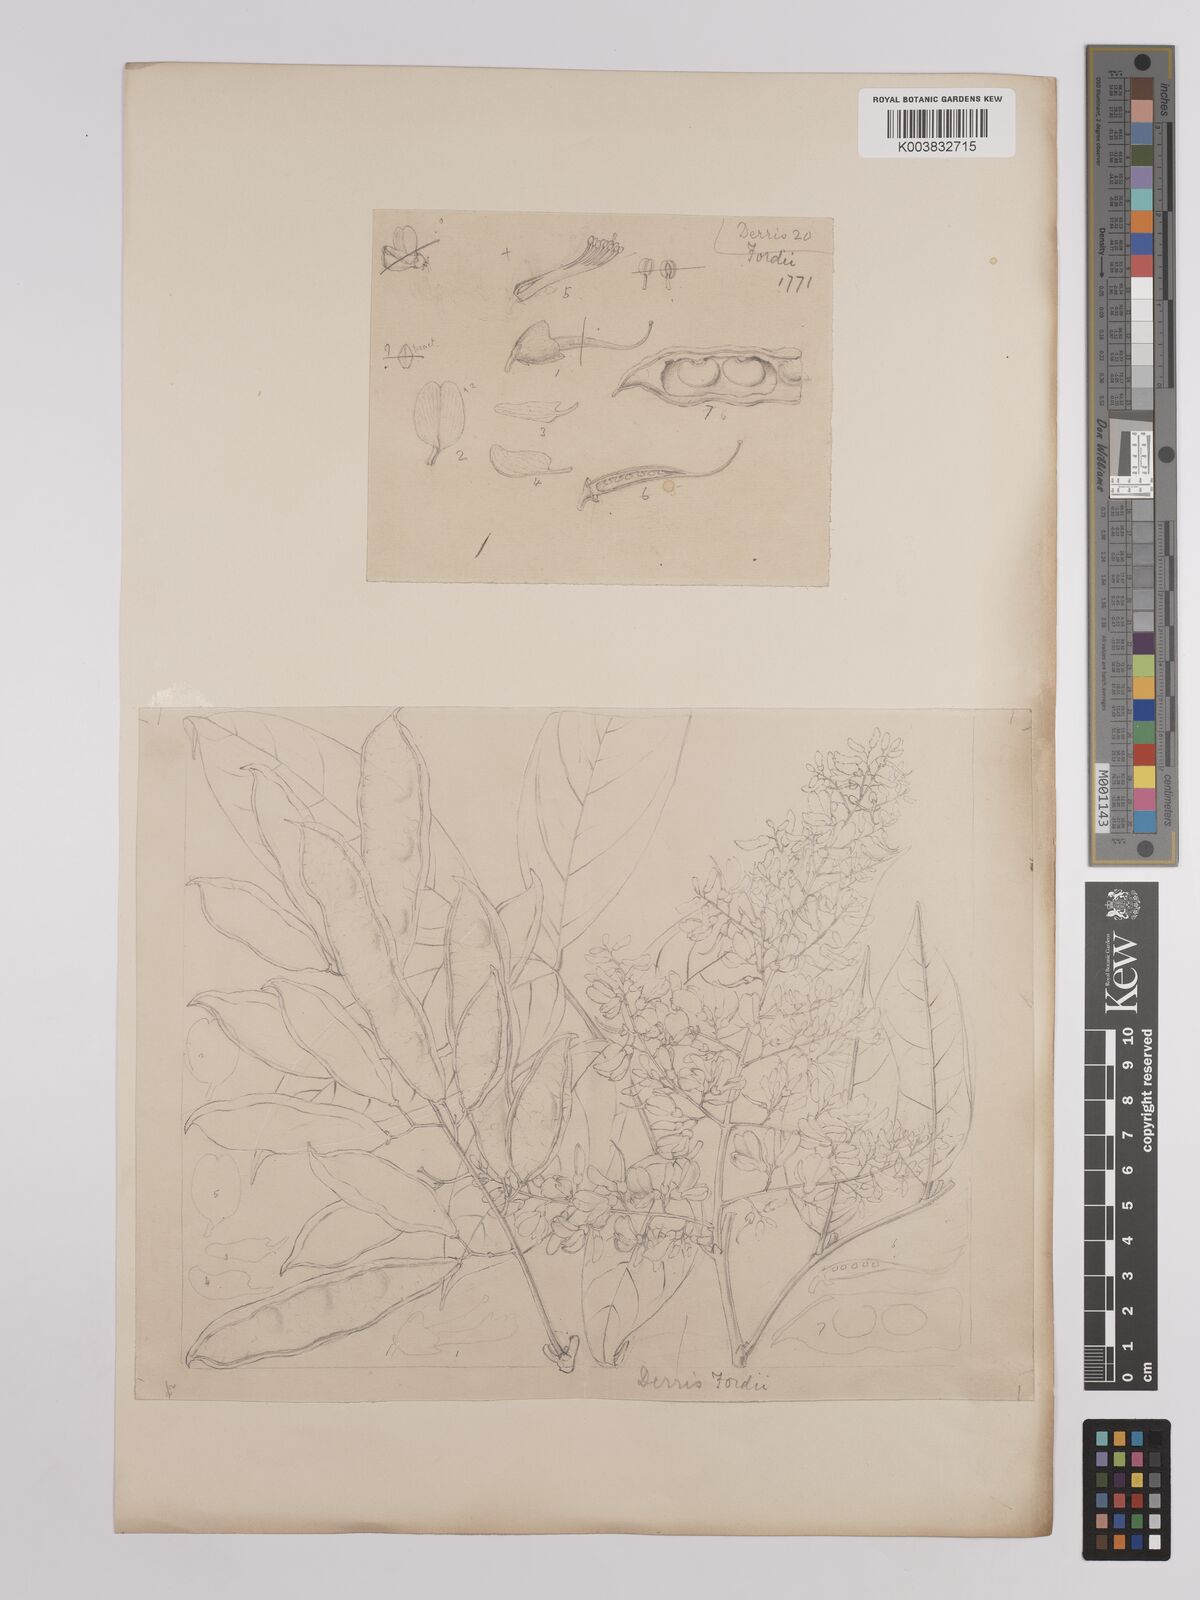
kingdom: Plantae
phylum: Tracheophyta
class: Magnoliopsida
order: Fabales
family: Fabaceae
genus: Derris
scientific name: Derris fordii
